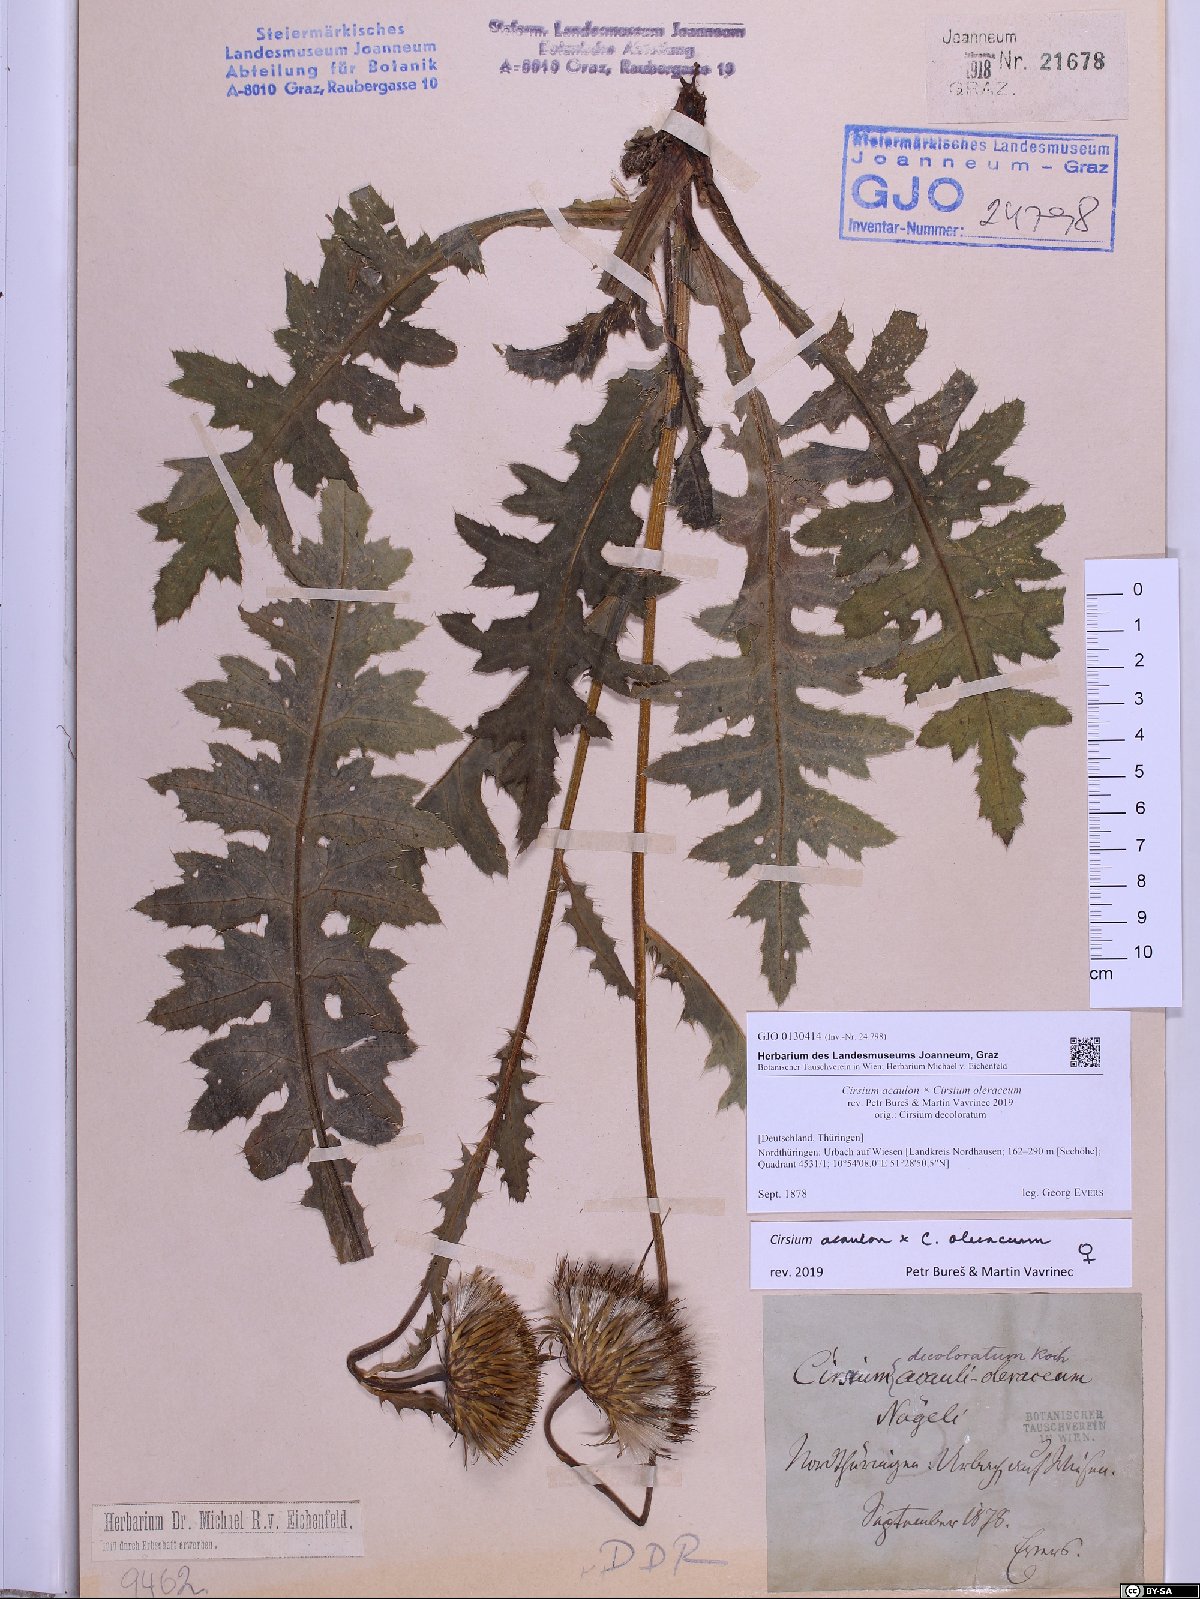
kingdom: Plantae
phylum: Tracheophyta
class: Magnoliopsida
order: Asterales
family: Asteraceae
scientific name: Asteraceae
